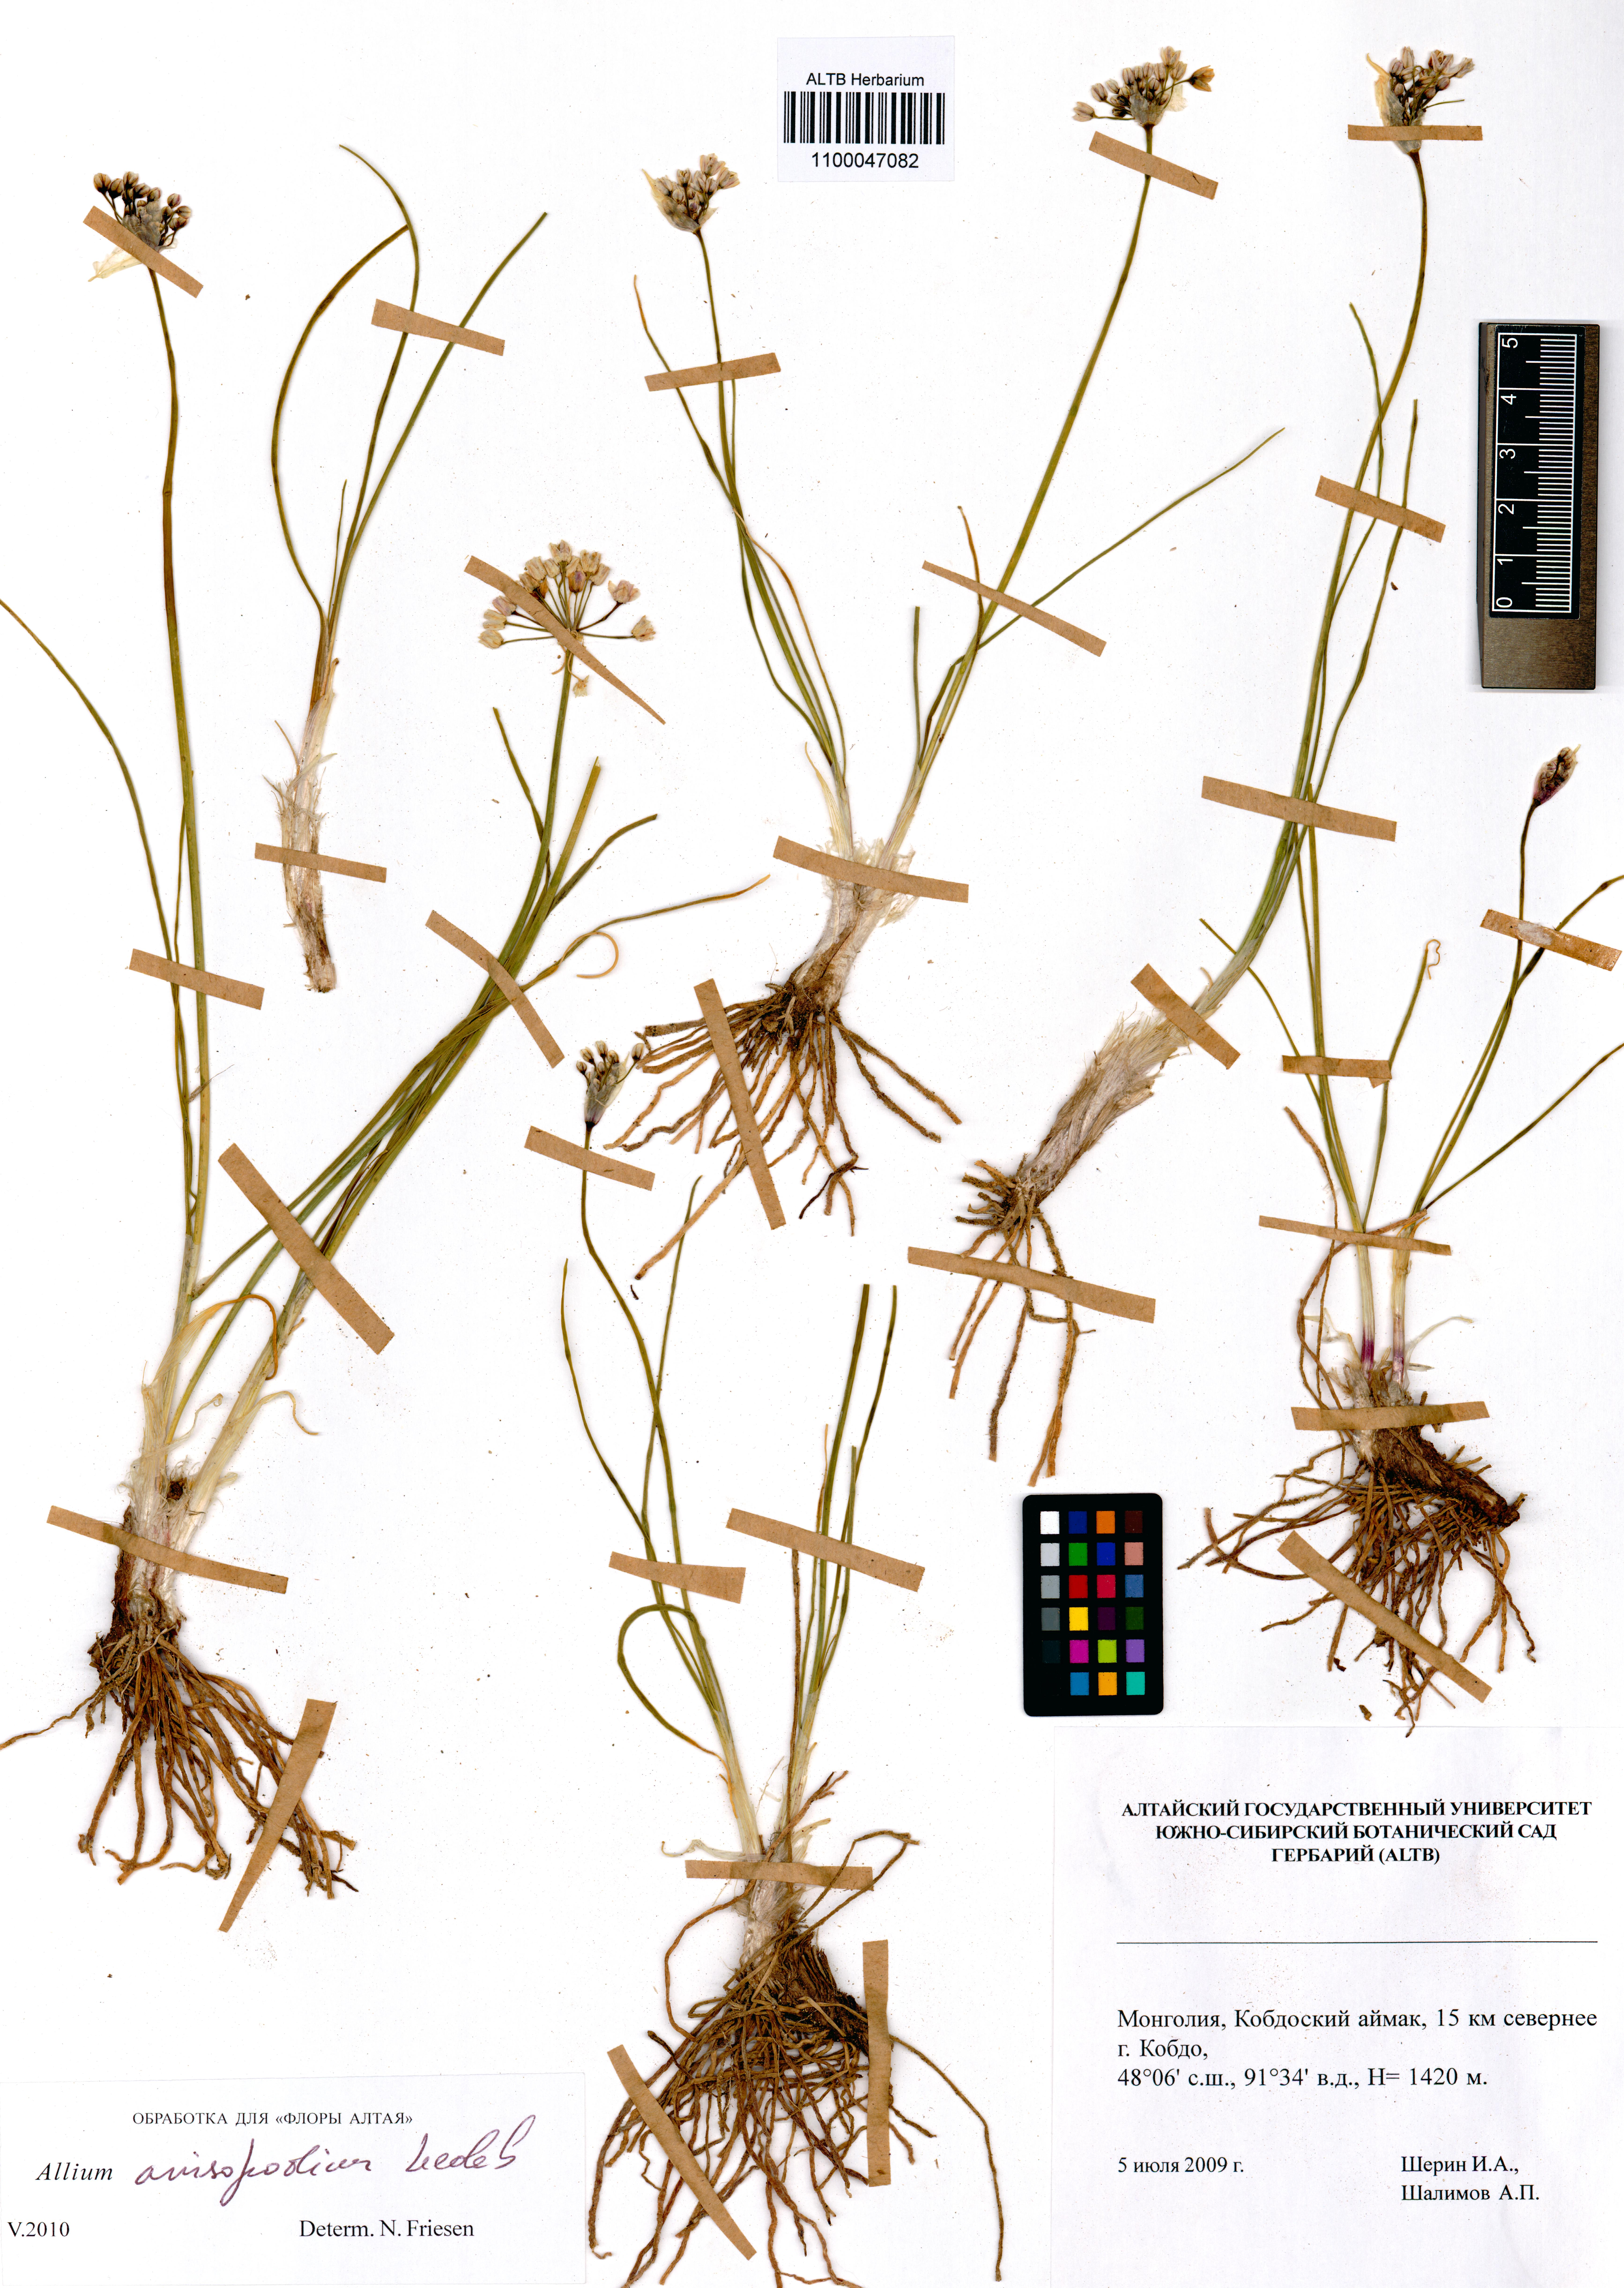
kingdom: Plantae
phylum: Tracheophyta
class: Liliopsida
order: Asparagales
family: Amaryllidaceae
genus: Allium
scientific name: Allium anisopodium
